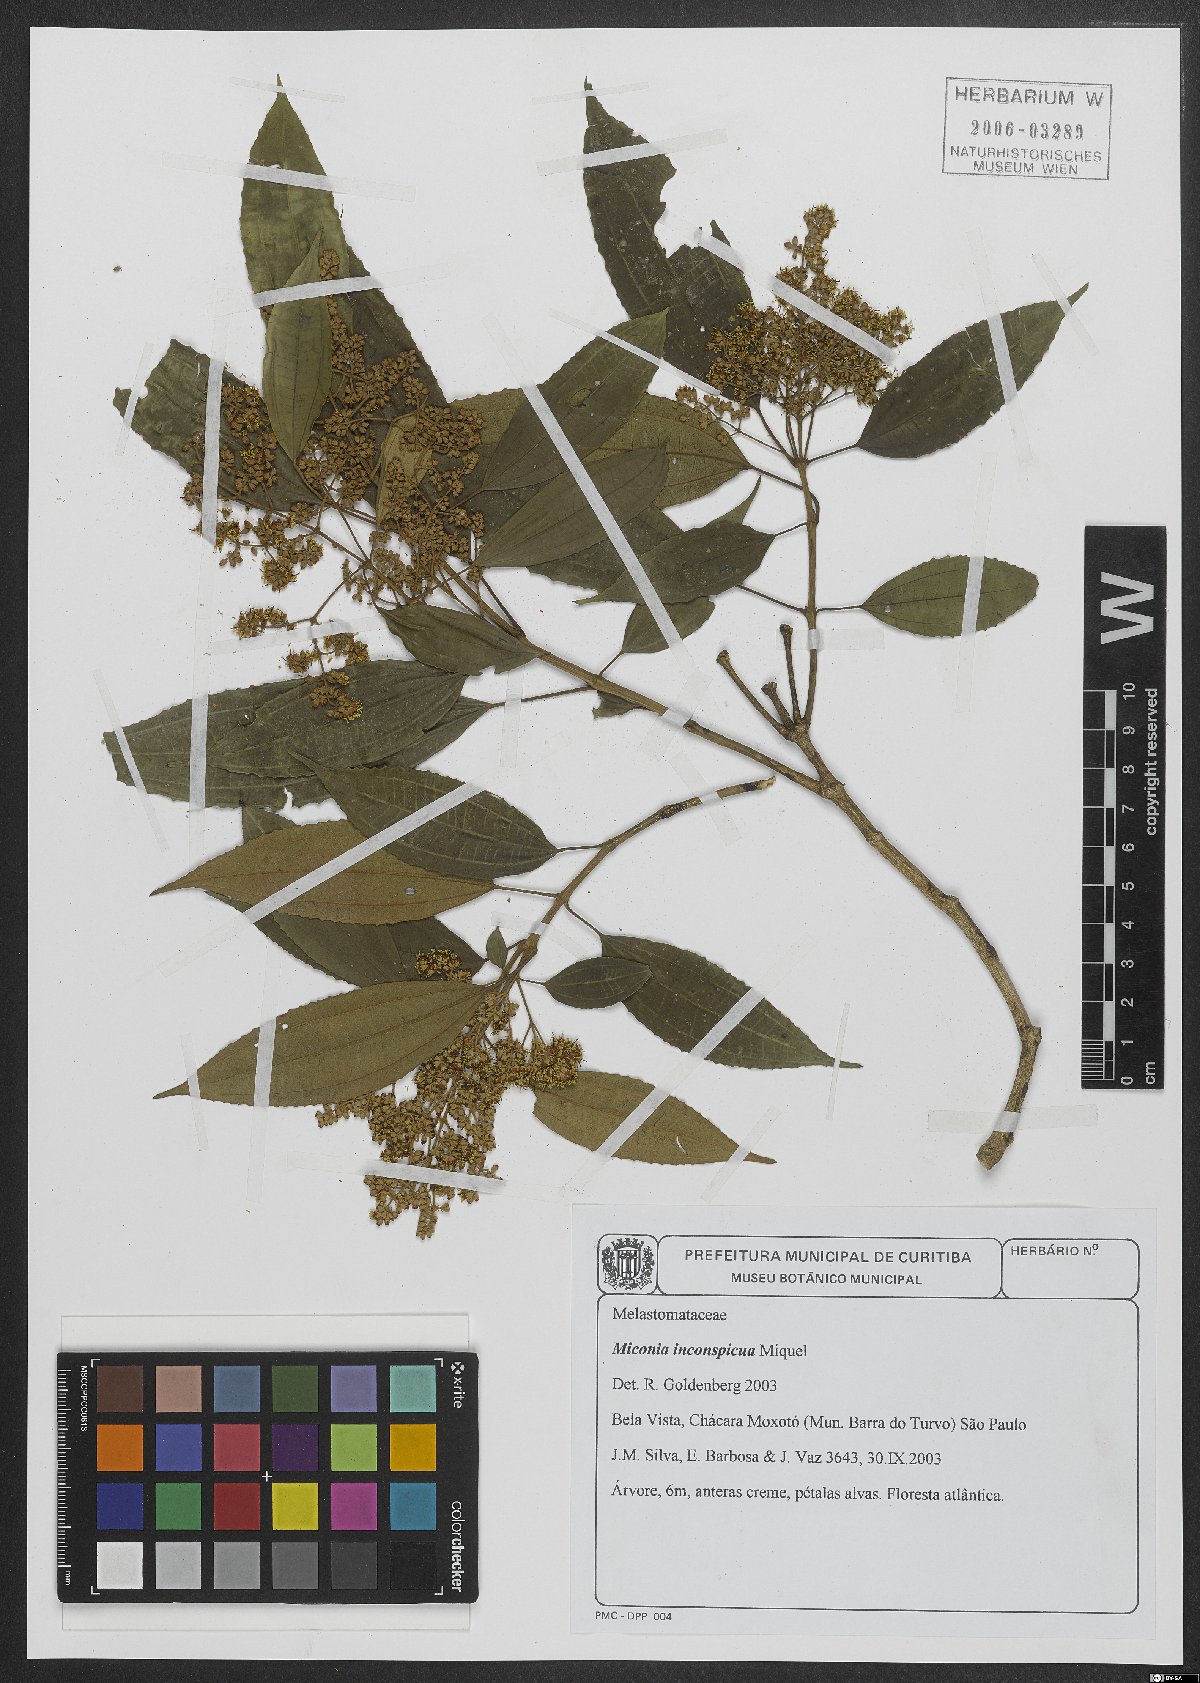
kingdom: Plantae
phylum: Tracheophyta
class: Magnoliopsida
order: Myrtales
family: Melastomataceae
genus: Miconia
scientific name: Miconia inconspicua
